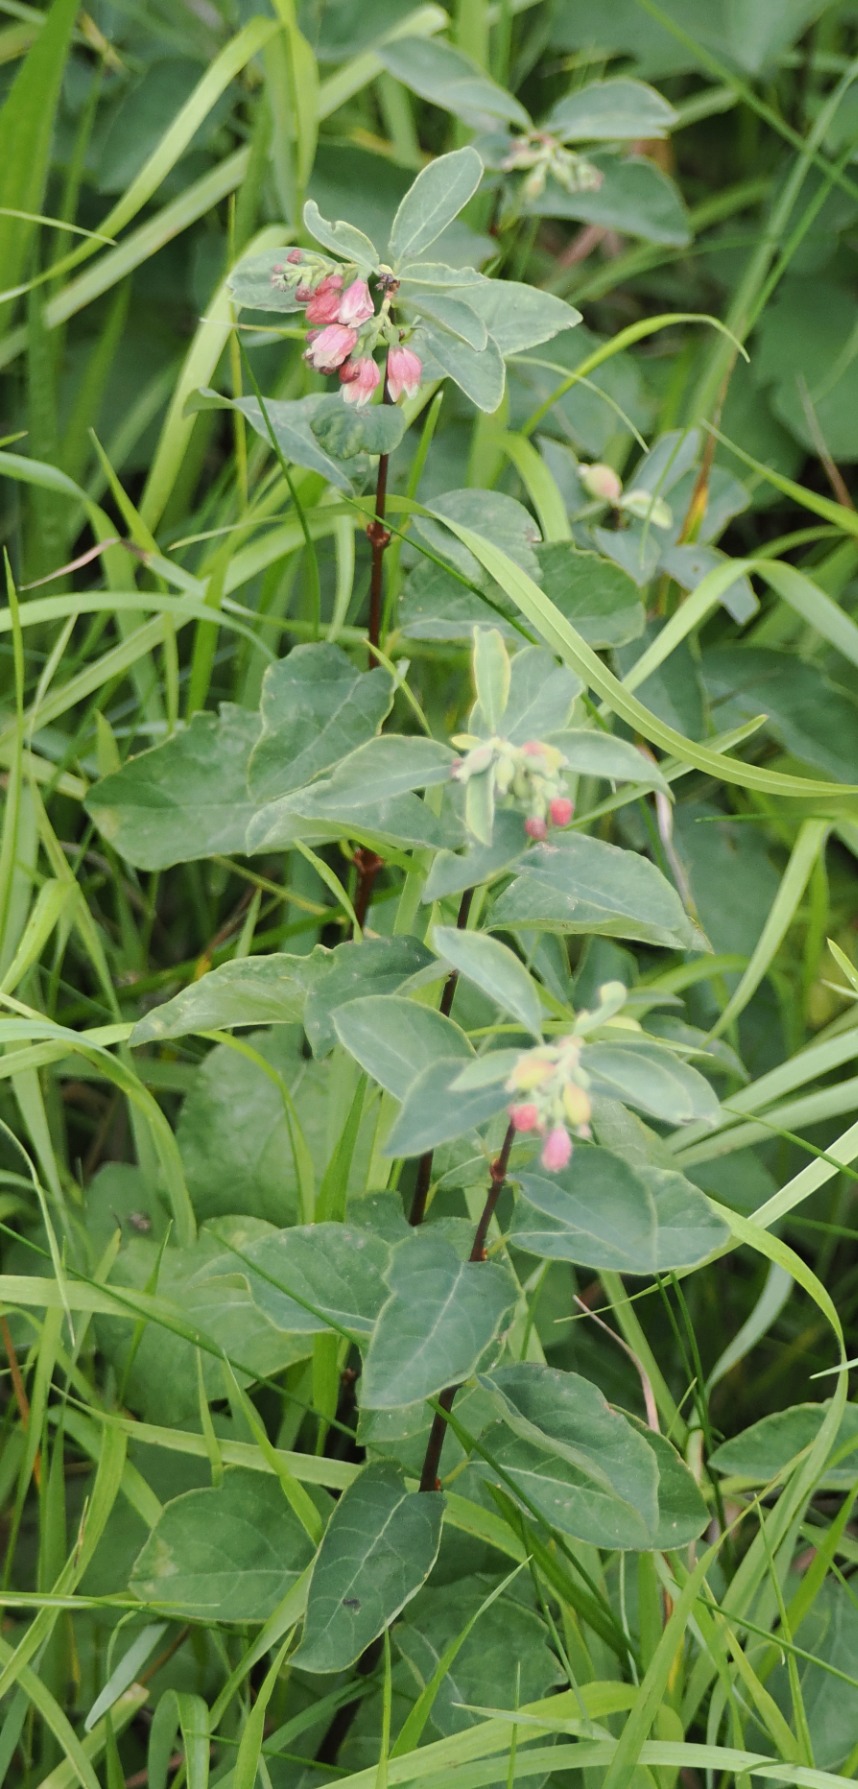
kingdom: Plantae
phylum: Tracheophyta
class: Magnoliopsida
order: Dipsacales
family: Caprifoliaceae
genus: Symphoricarpos
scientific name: Symphoricarpos albus
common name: Almindelig snebær
